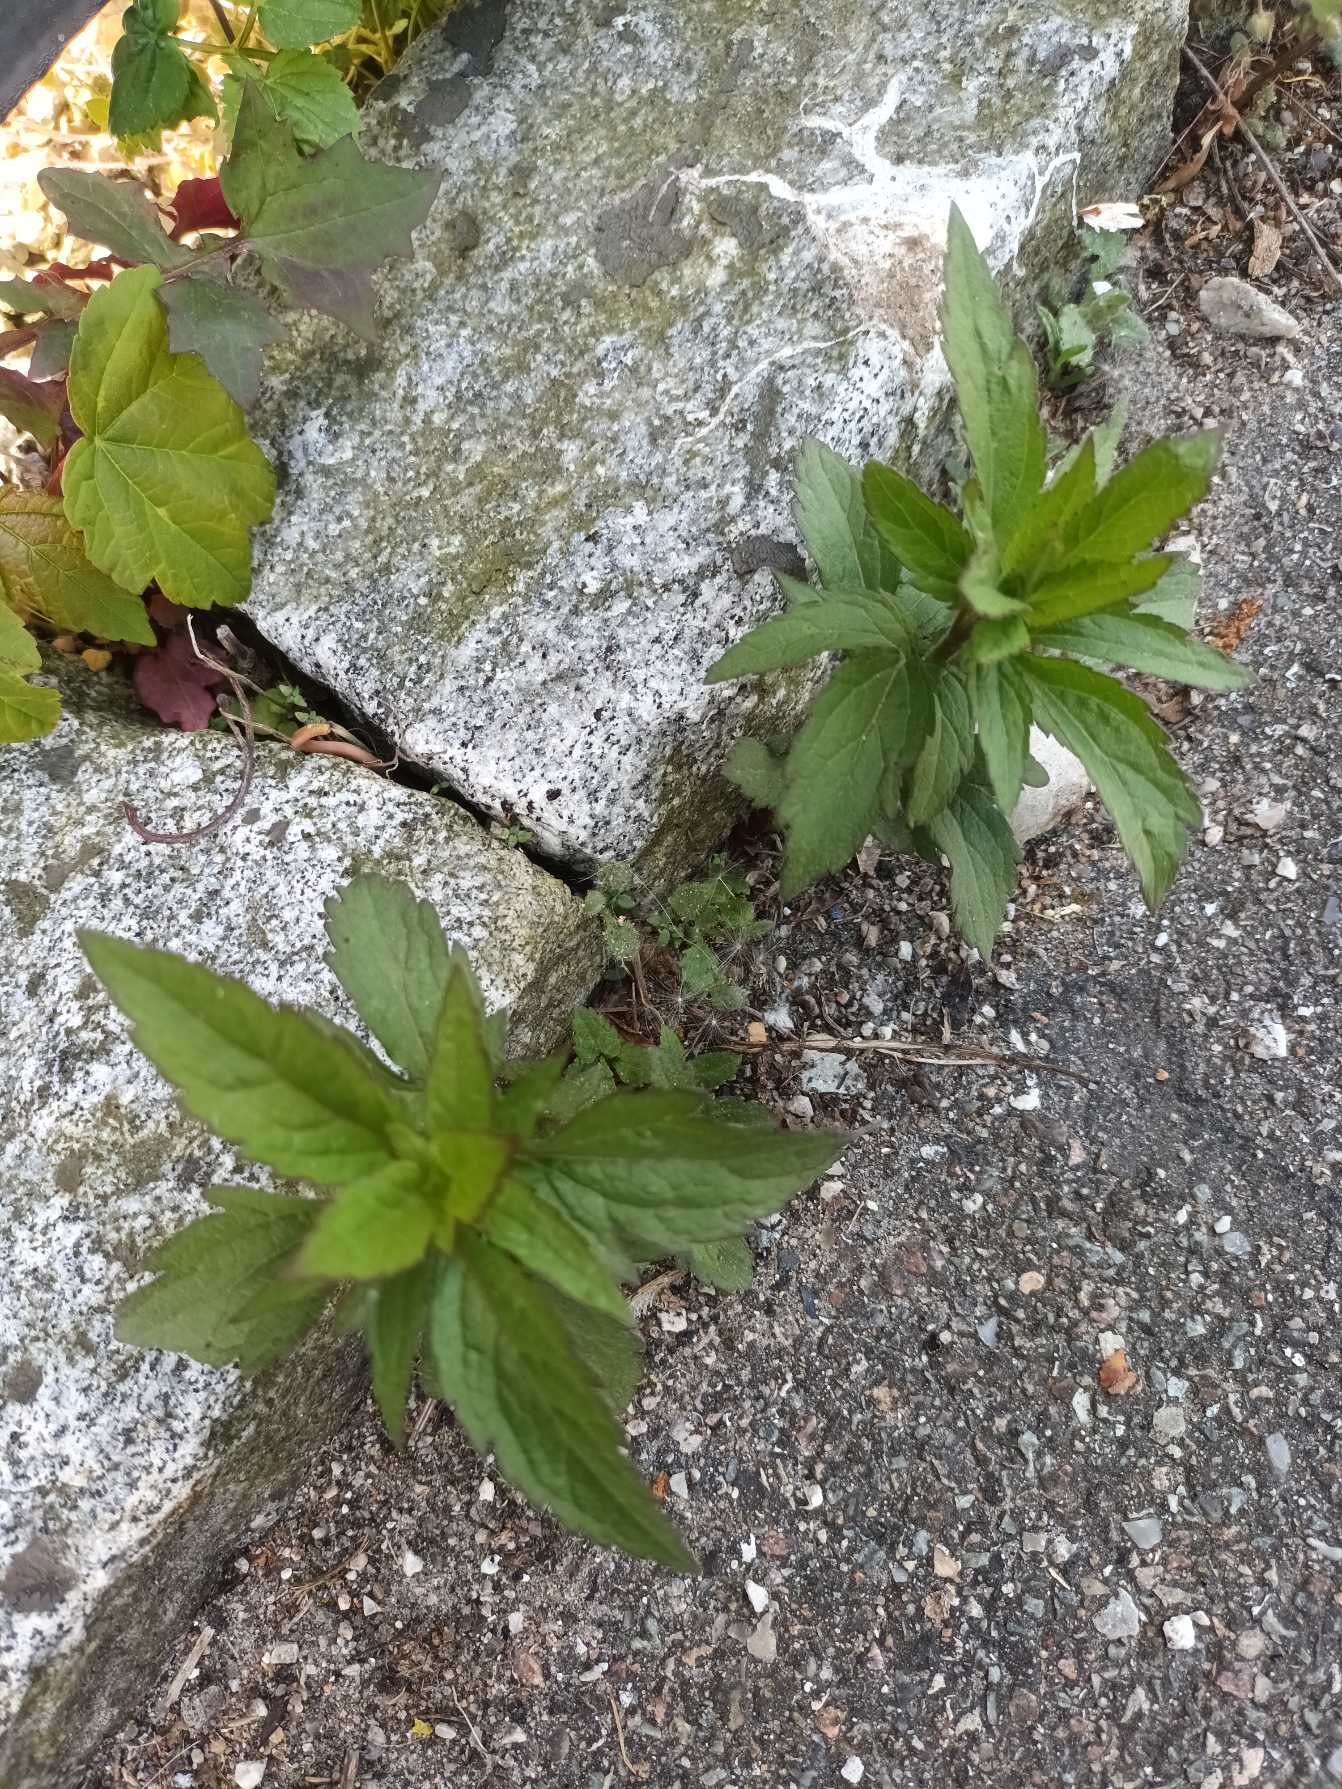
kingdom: Plantae
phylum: Tracheophyta
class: Magnoliopsida
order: Asterales
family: Asteraceae
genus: Eupatorium
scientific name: Eupatorium cannabinum
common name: Hjortetrøst
